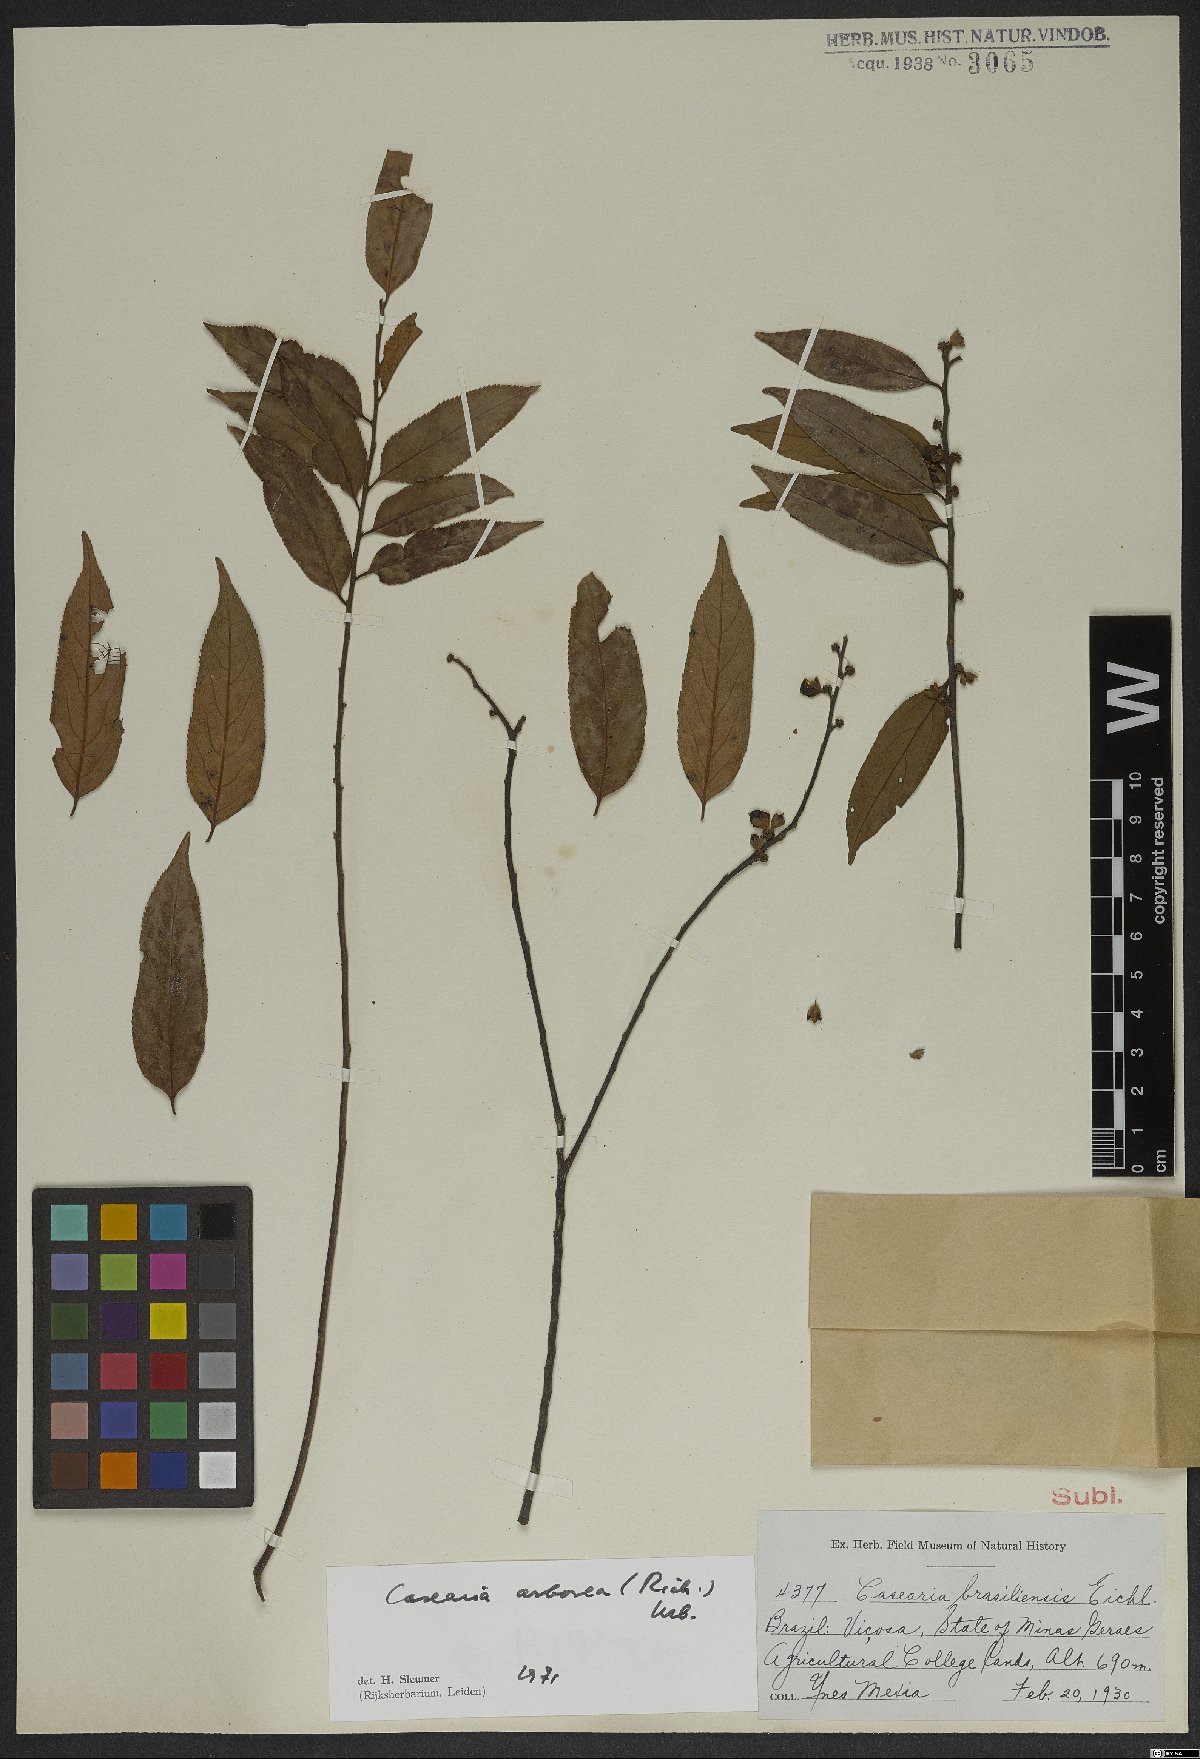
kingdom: Plantae
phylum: Tracheophyta
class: Magnoliopsida
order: Malpighiales
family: Salicaceae
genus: Casearia
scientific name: Casearia arborea
